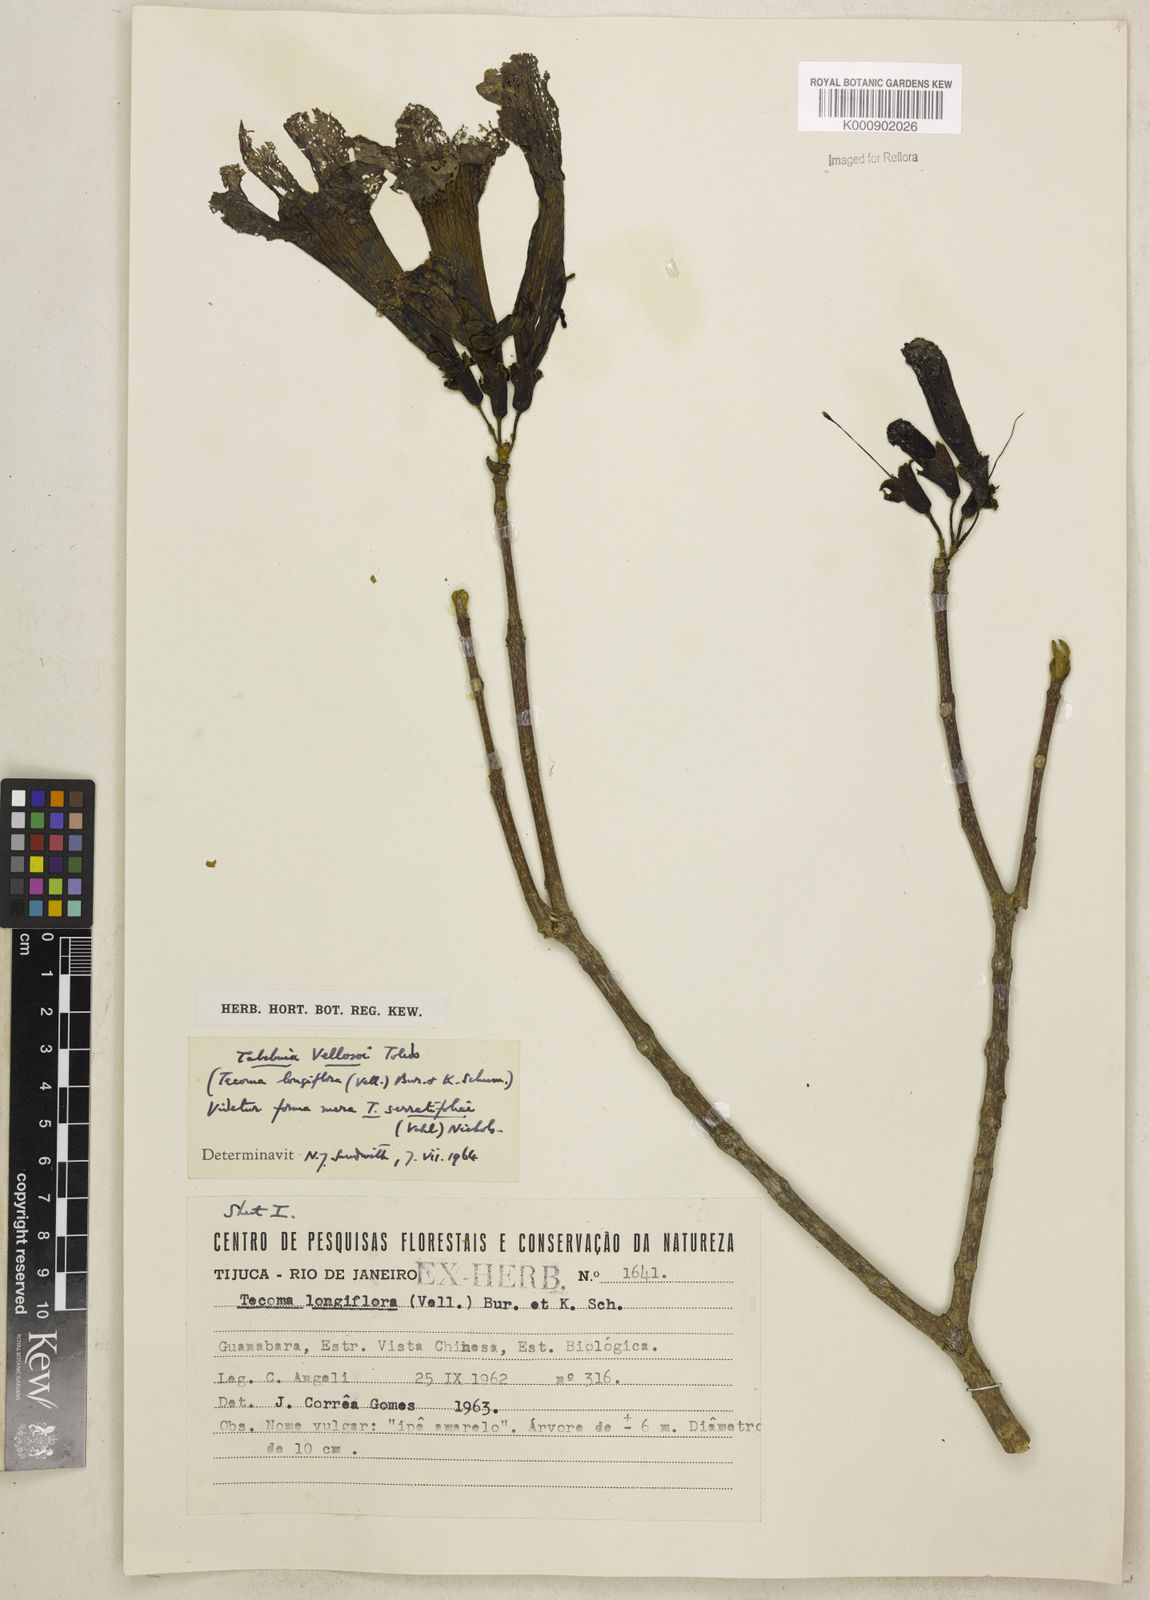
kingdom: Plantae
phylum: Tracheophyta
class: Magnoliopsida
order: Lamiales
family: Bignoniaceae
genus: Ekmanianthe
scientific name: Ekmanianthe longiflora
